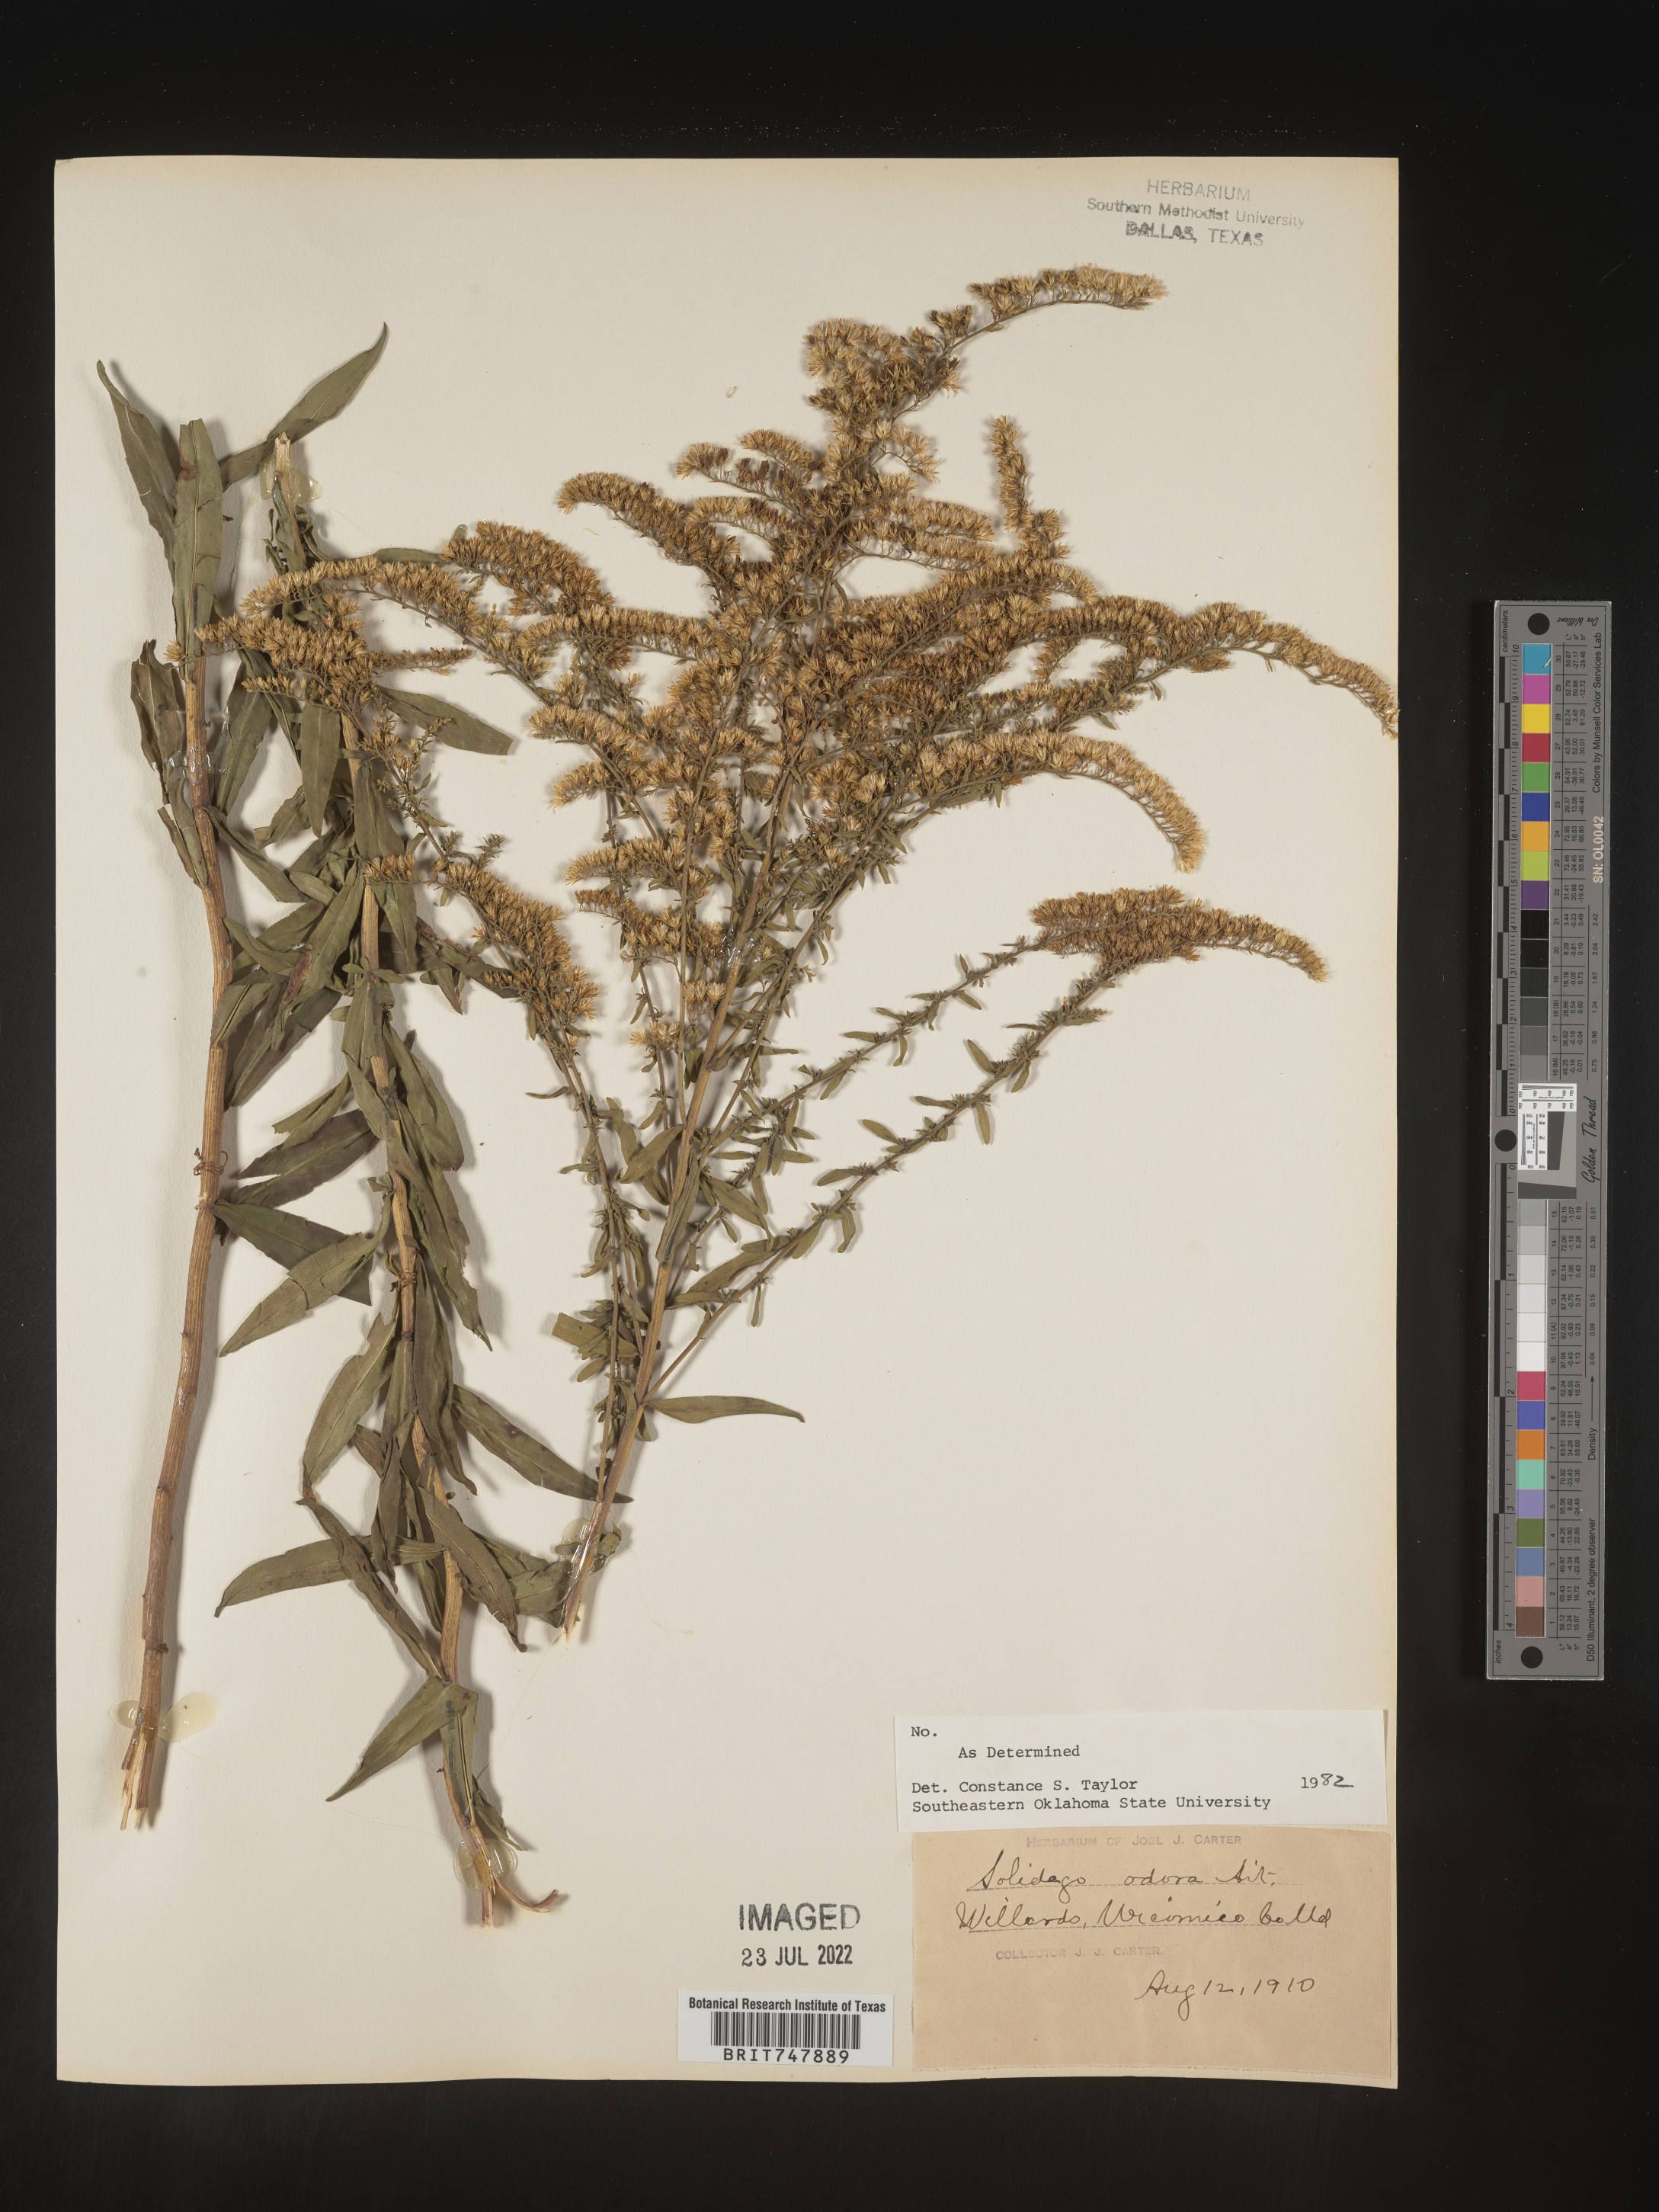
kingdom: Plantae
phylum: Tracheophyta
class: Magnoliopsida
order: Asterales
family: Asteraceae
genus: Solidago
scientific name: Solidago odora
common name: Anise-scented goldenrod
